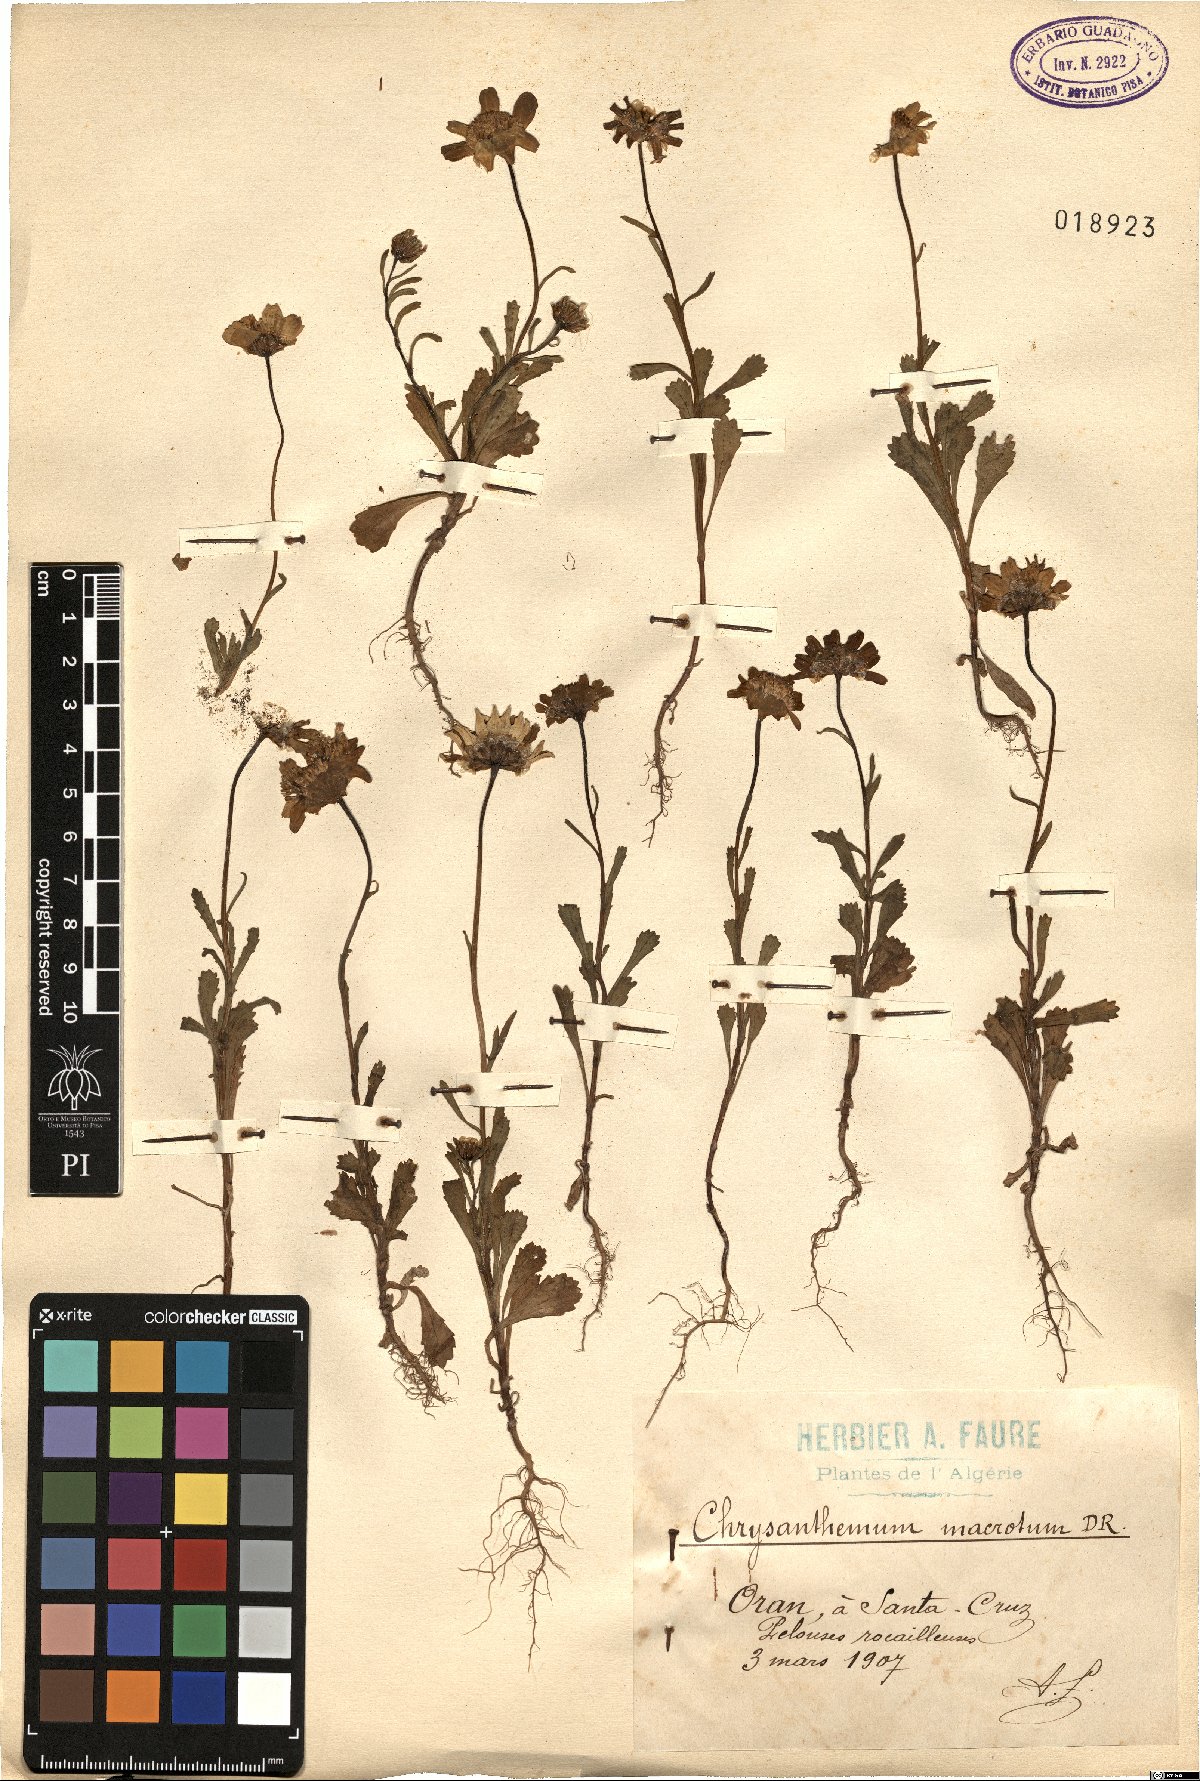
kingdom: Plantae
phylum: Tracheophyta
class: Magnoliopsida
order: Asterales
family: Asteraceae
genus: Glossopappus
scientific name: Glossopappus macrotus
